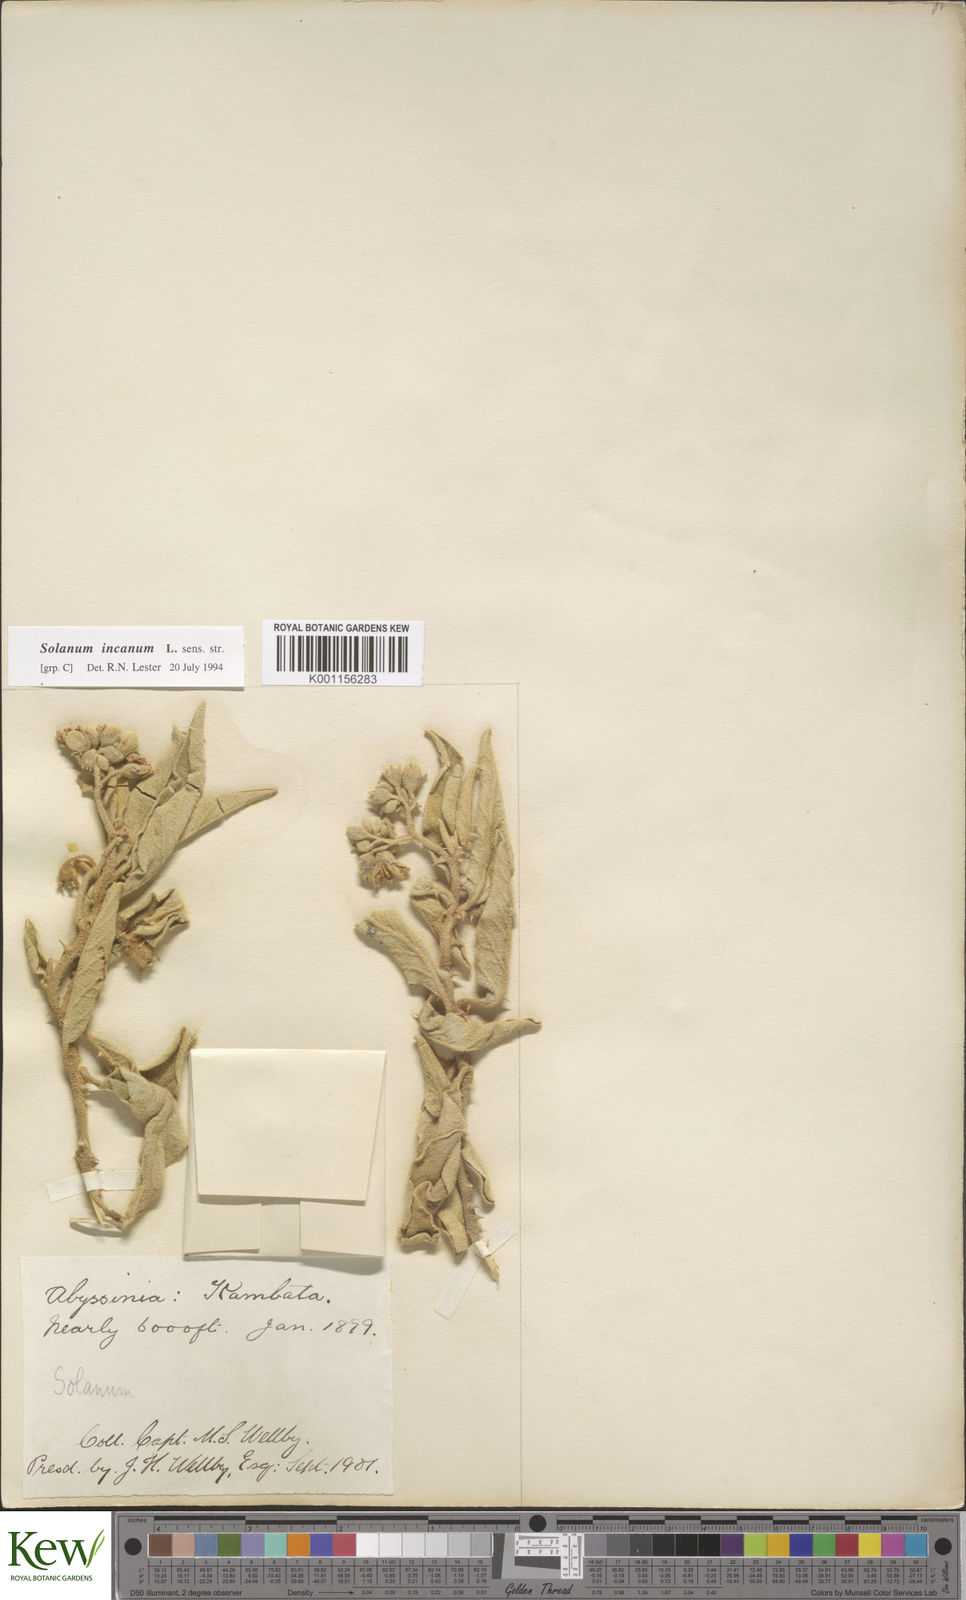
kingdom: Plantae
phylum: Tracheophyta
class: Magnoliopsida
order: Solanales
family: Solanaceae
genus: Solanum
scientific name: Solanum incanum
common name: Bitter apple
